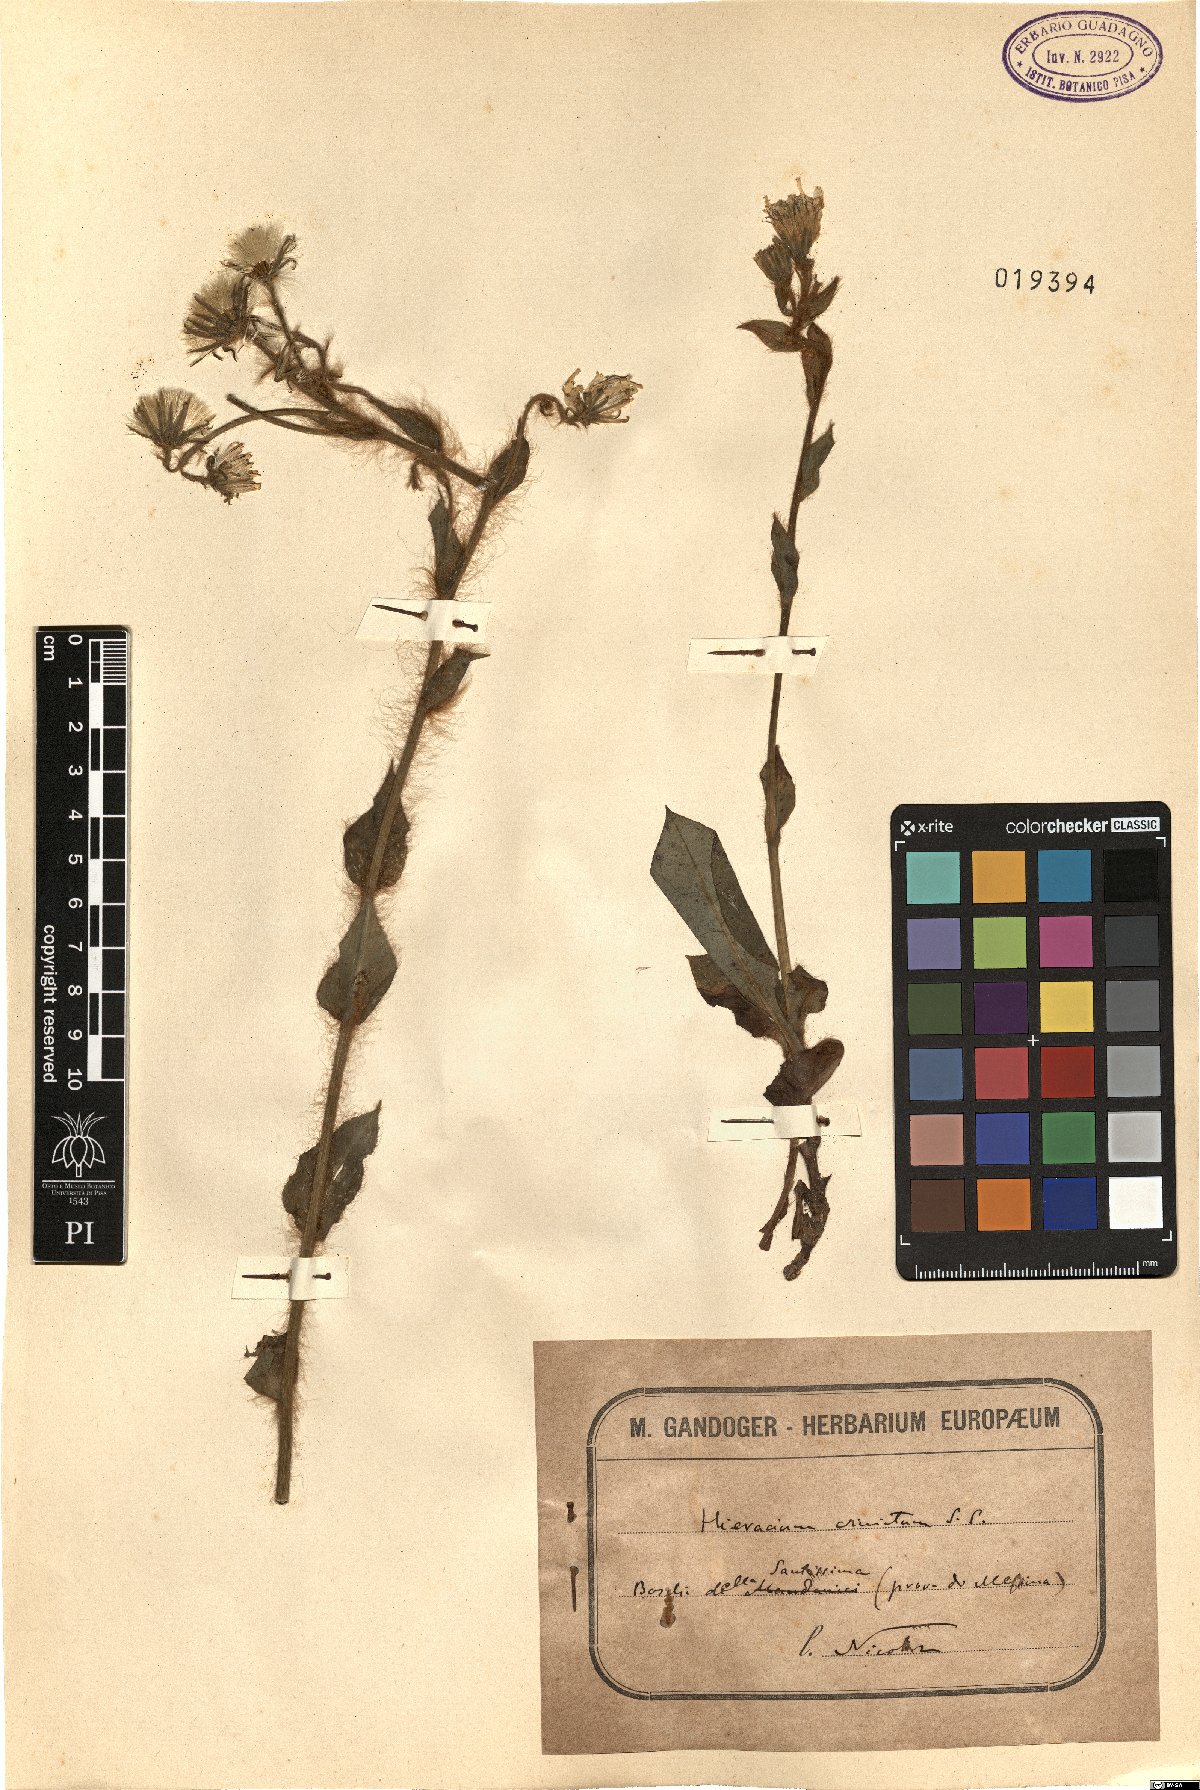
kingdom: Plantae
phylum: Tracheophyta
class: Magnoliopsida
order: Asterales
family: Asteraceae
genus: Hieracium
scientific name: Hieracium racemosum
